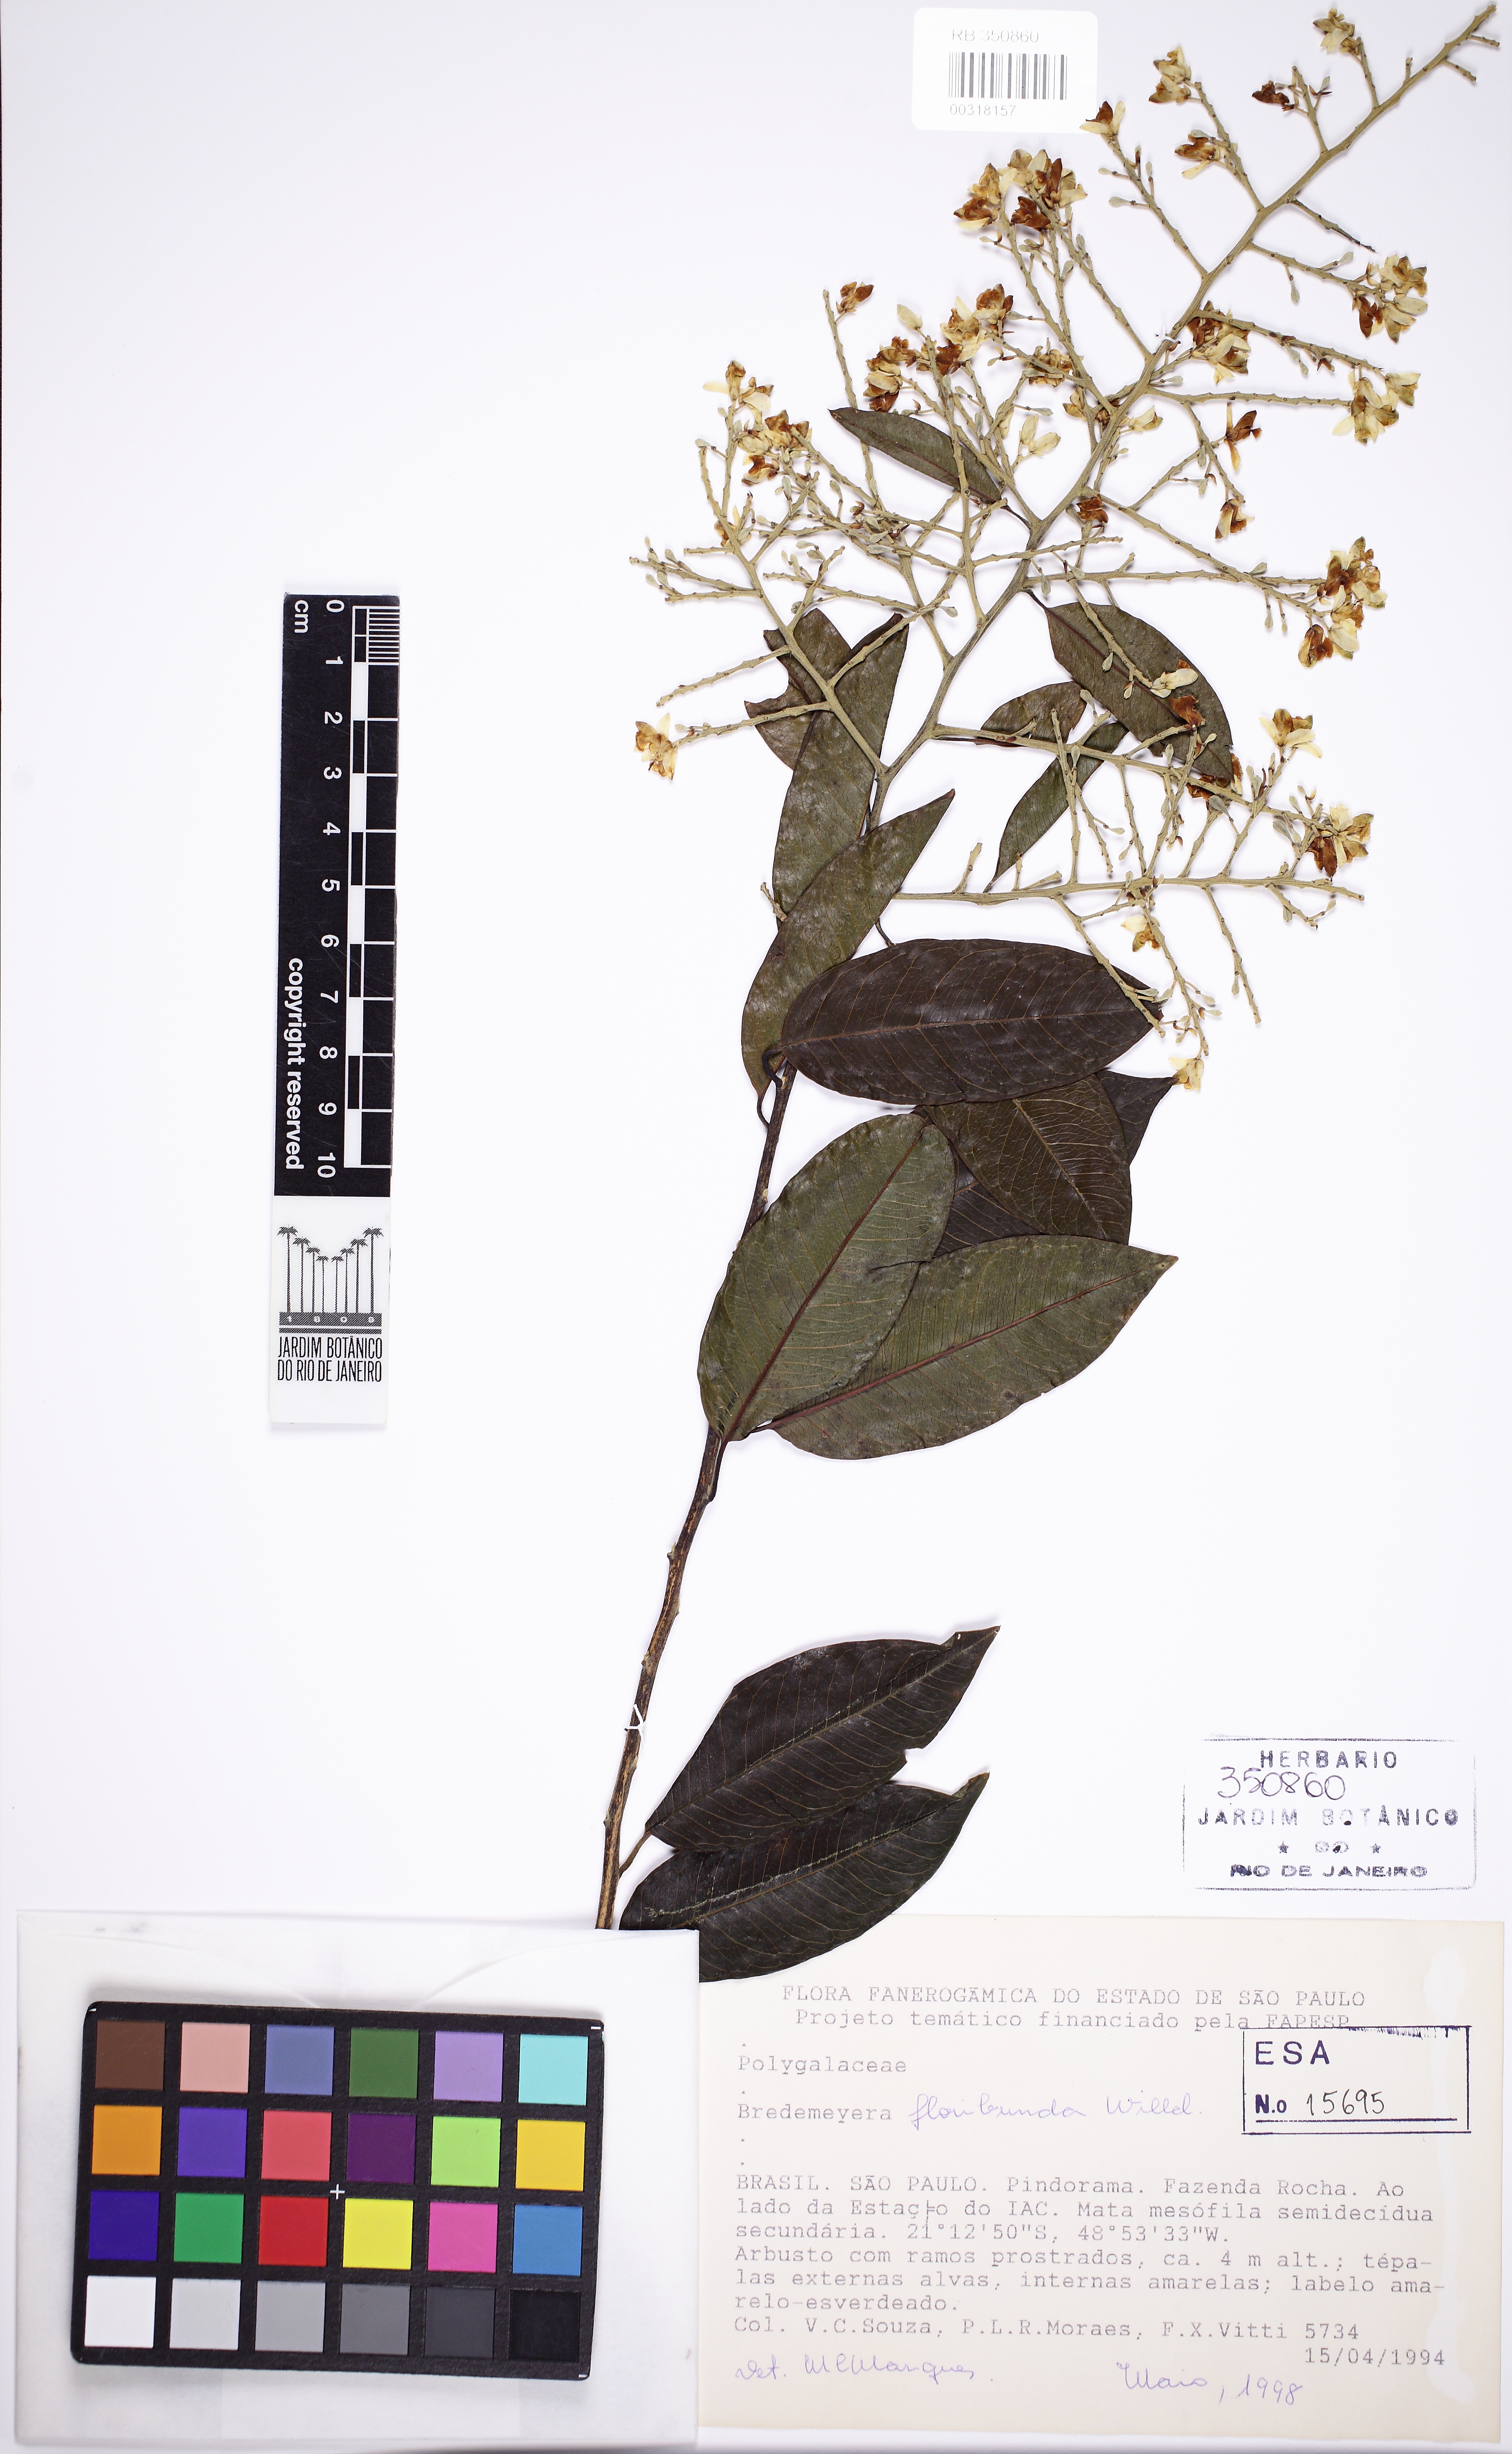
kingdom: Plantae
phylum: Tracheophyta
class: Magnoliopsida
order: Fabales
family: Polygalaceae
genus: Bredemeyera
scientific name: Bredemeyera floribunda
